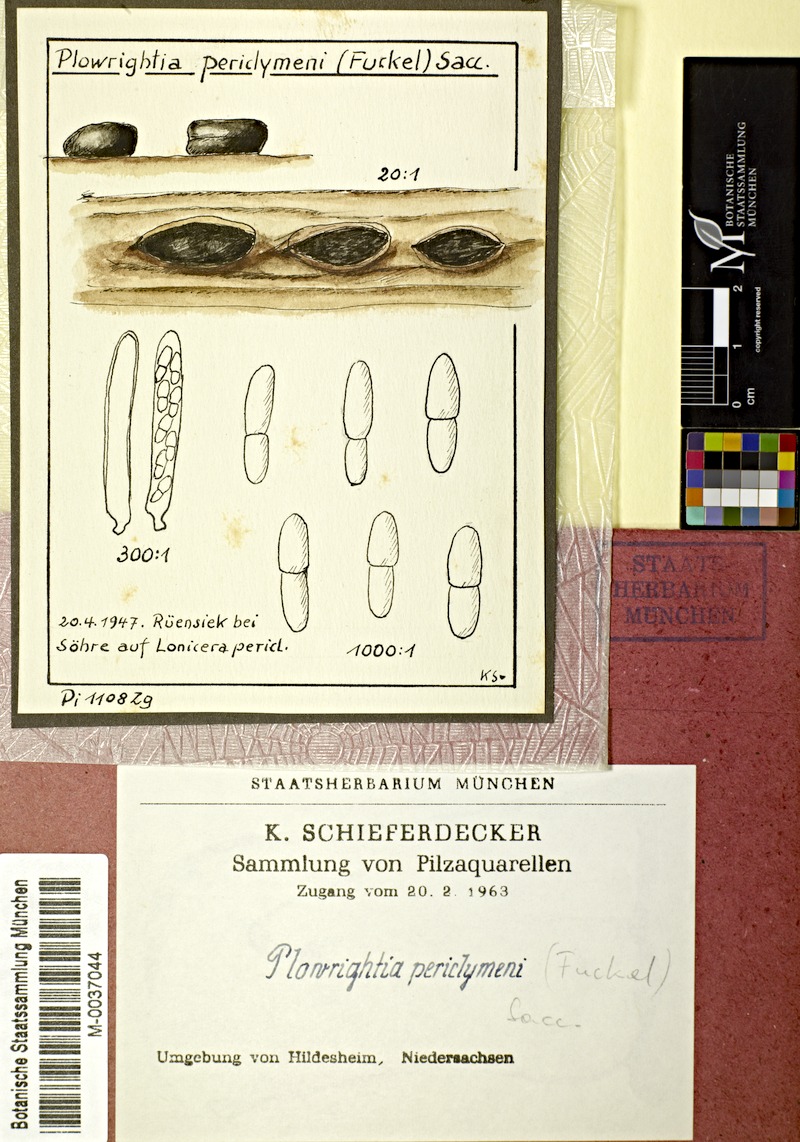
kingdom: Plantae
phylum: Tracheophyta
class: Magnoliopsida
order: Dipsacales
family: Caprifoliaceae
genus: Lonicera
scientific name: Lonicera periclymenum
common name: European honeysuckle
